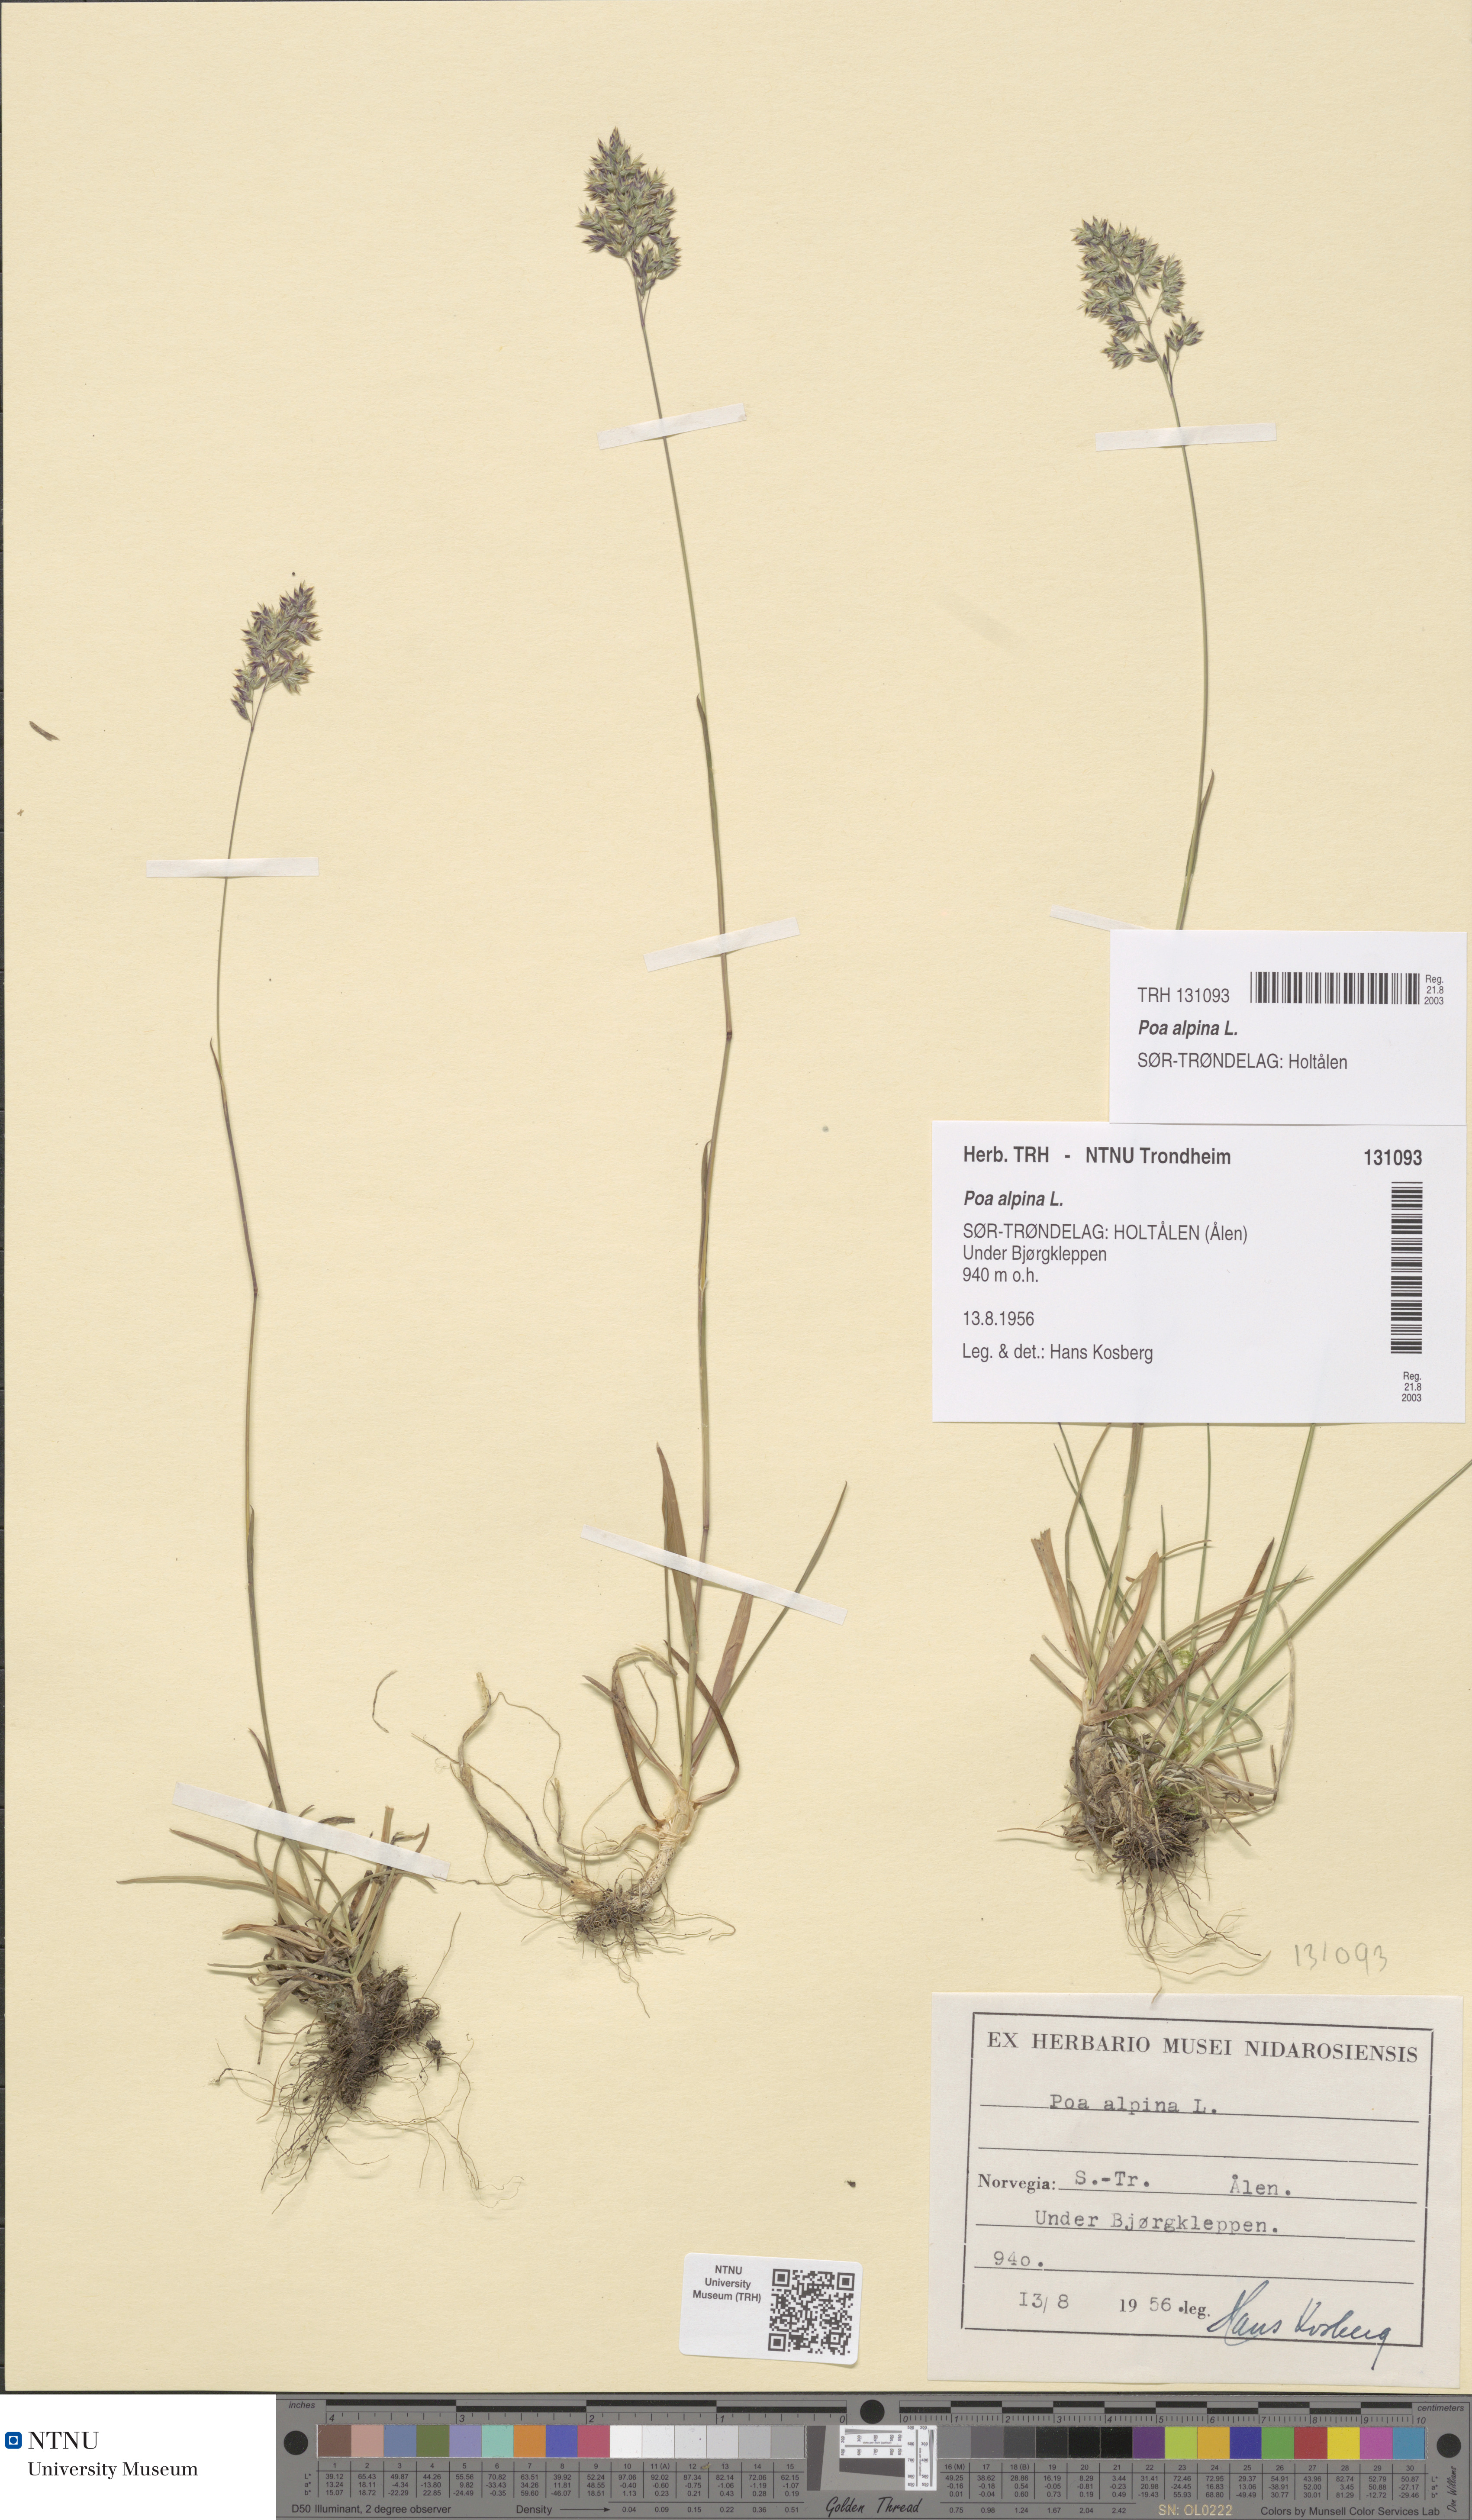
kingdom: Plantae
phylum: Tracheophyta
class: Liliopsida
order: Poales
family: Poaceae
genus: Poa
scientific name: Poa alpina
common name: Alpine bluegrass
